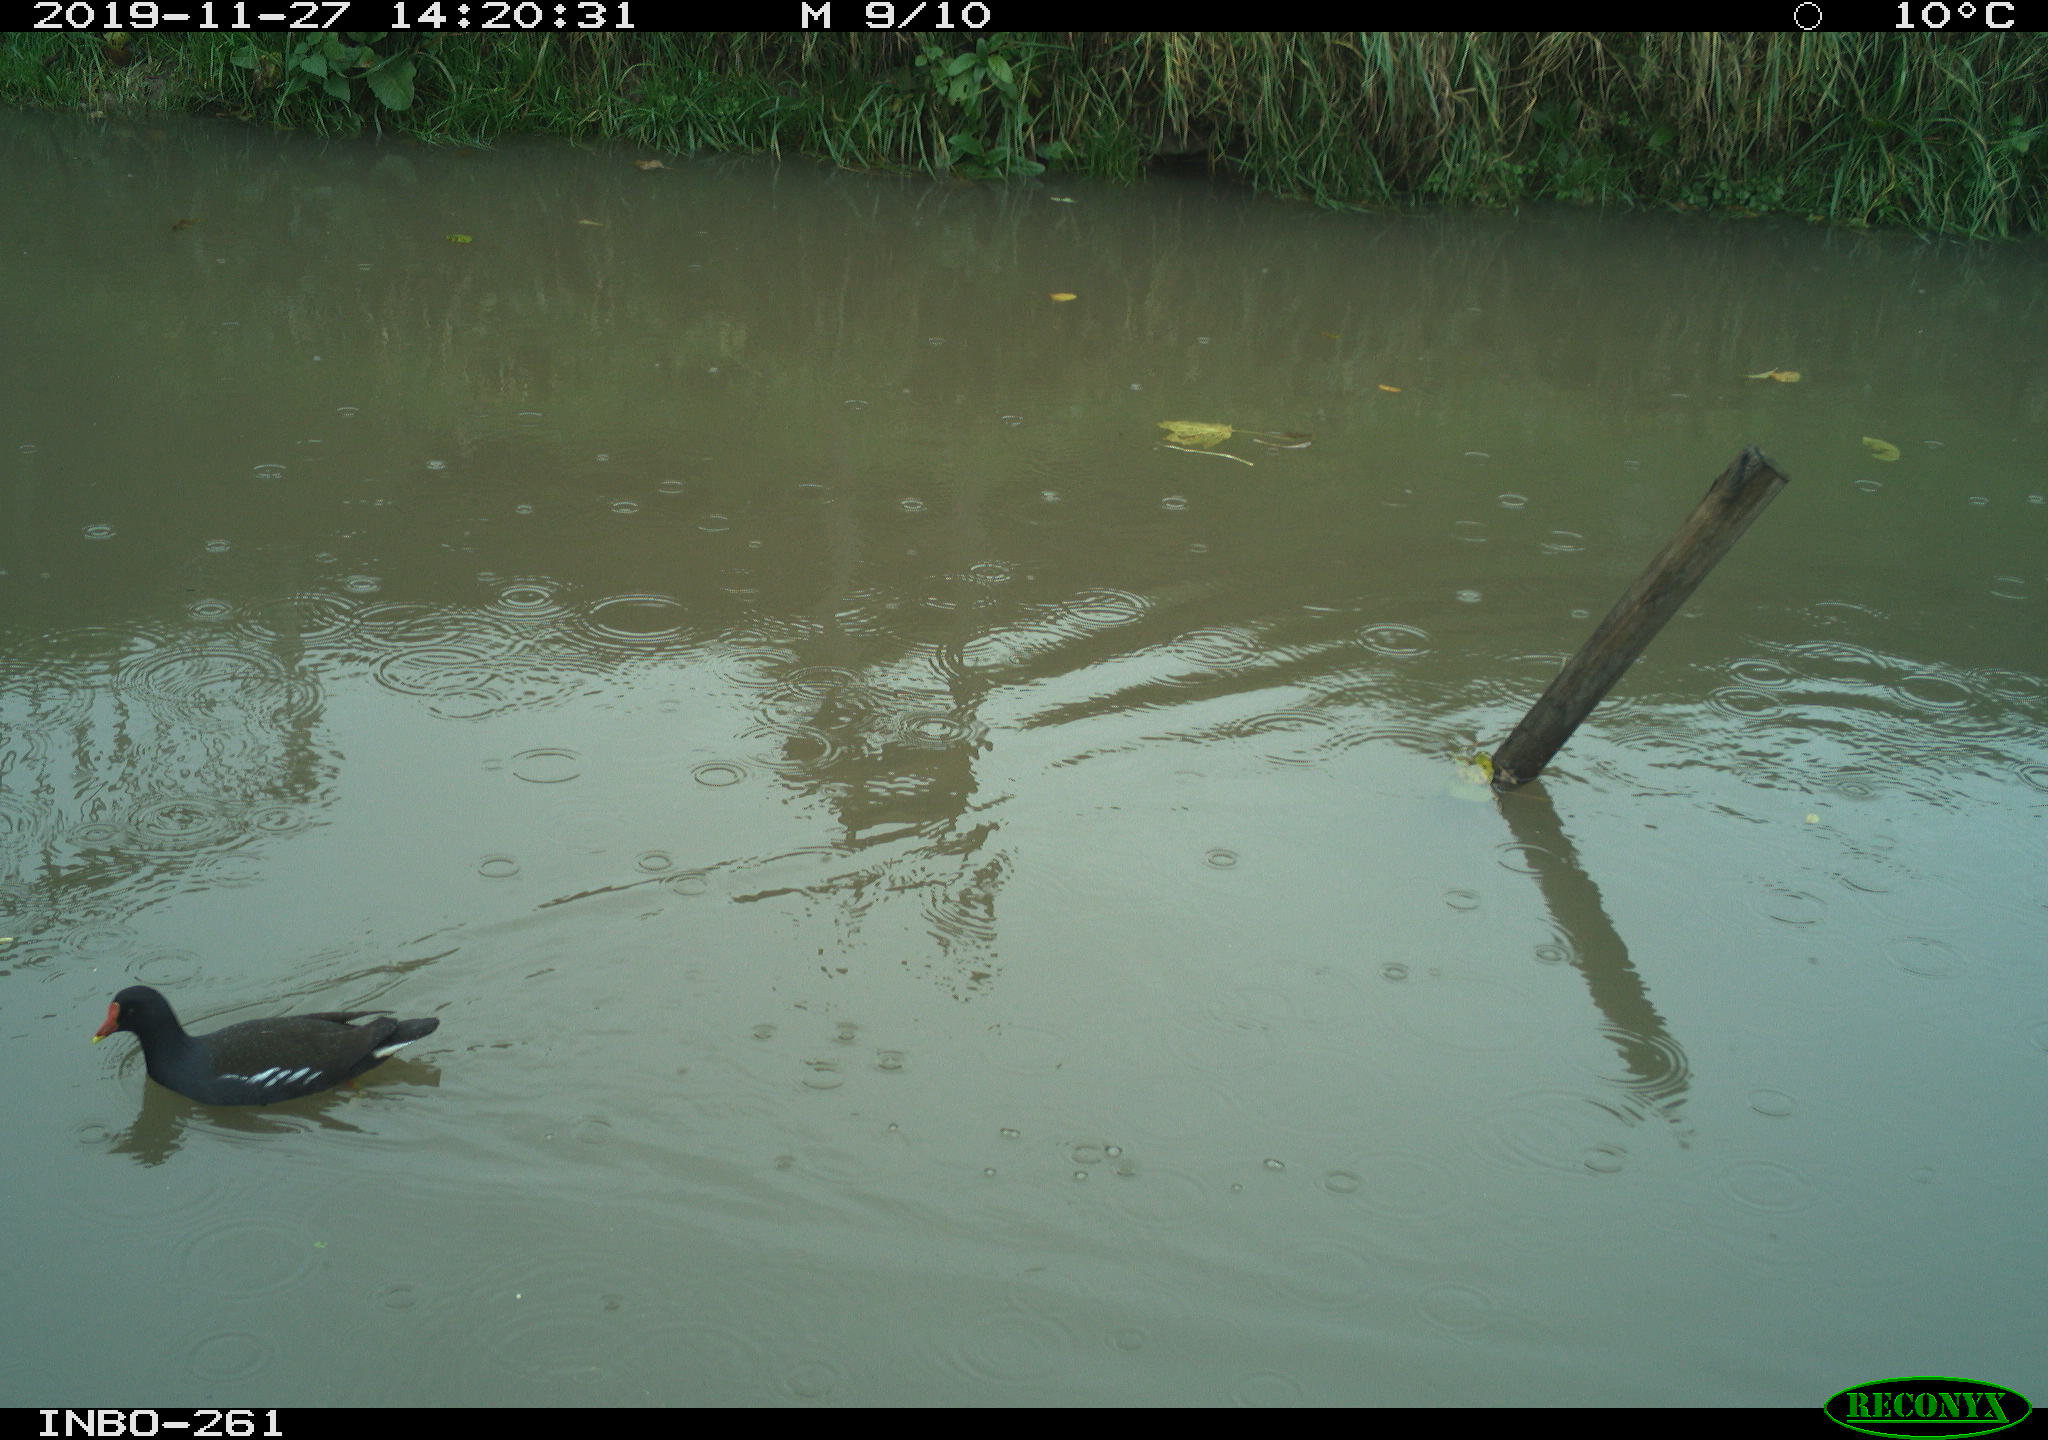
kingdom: Animalia
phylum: Chordata
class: Aves
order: Gruiformes
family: Rallidae
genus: Gallinula
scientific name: Gallinula chloropus
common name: Common moorhen
